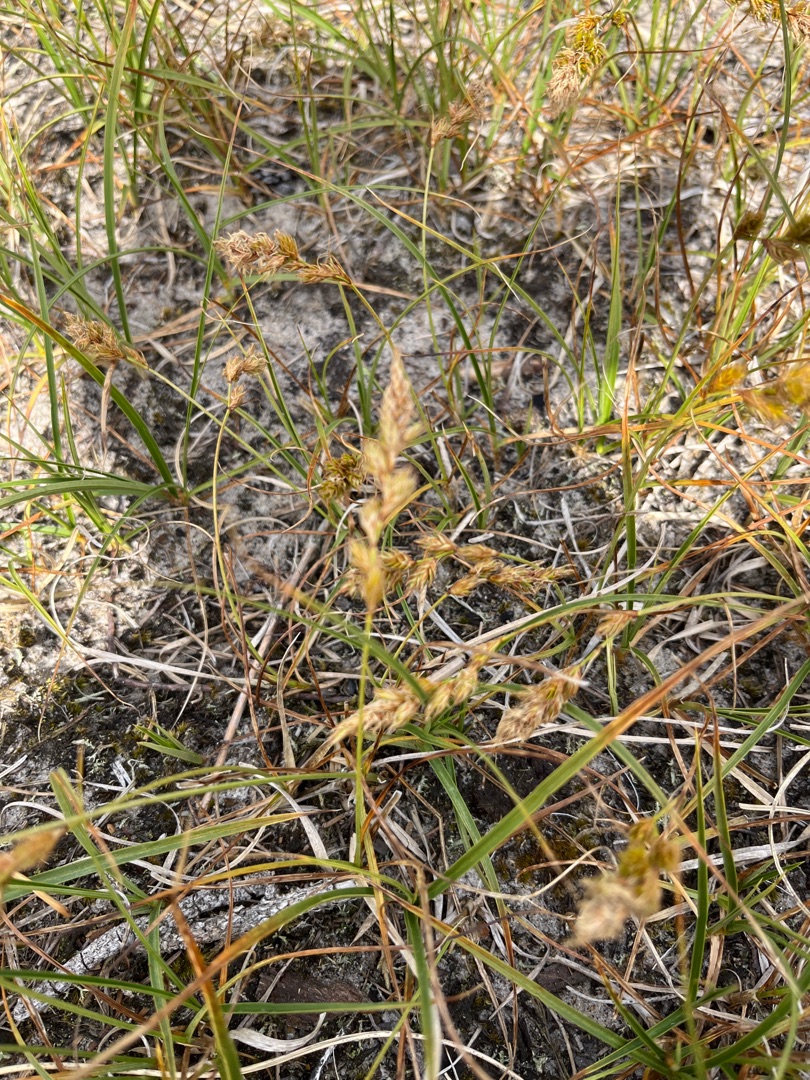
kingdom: Plantae
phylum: Tracheophyta
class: Liliopsida
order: Poales
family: Cyperaceae
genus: Carex
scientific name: Carex arenaria
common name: Sand-star
